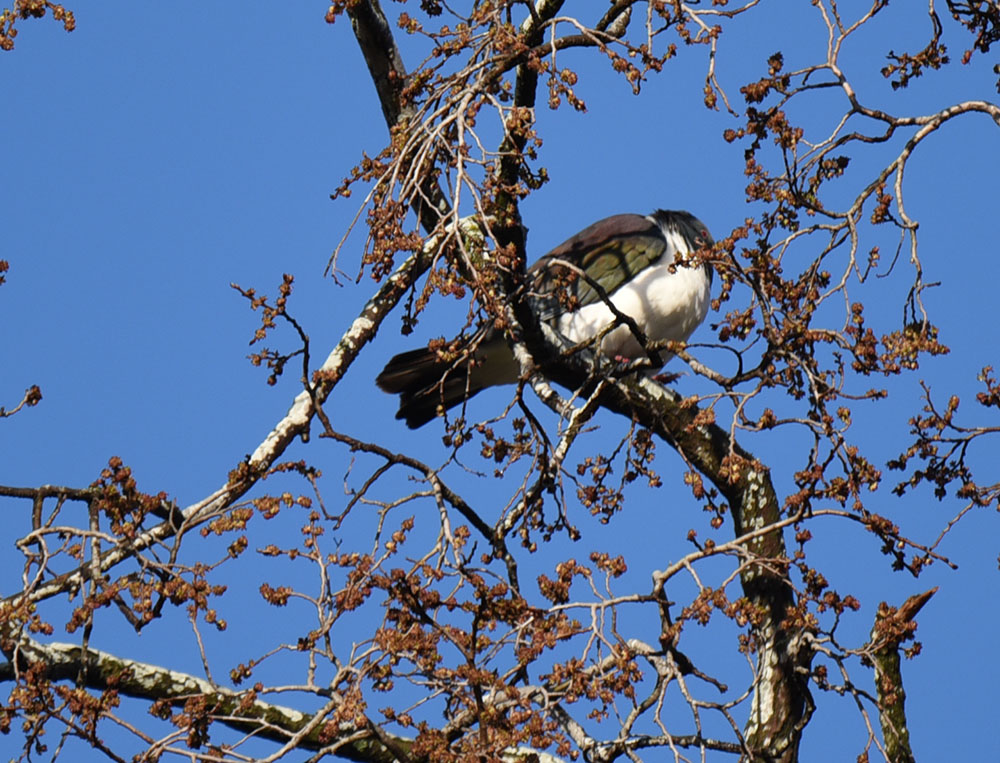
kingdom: Animalia
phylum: Chordata
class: Aves
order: Columbiformes
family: Columbidae
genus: Hemiphaga
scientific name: Hemiphaga novaeseelandiae
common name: New zealand pigeon
